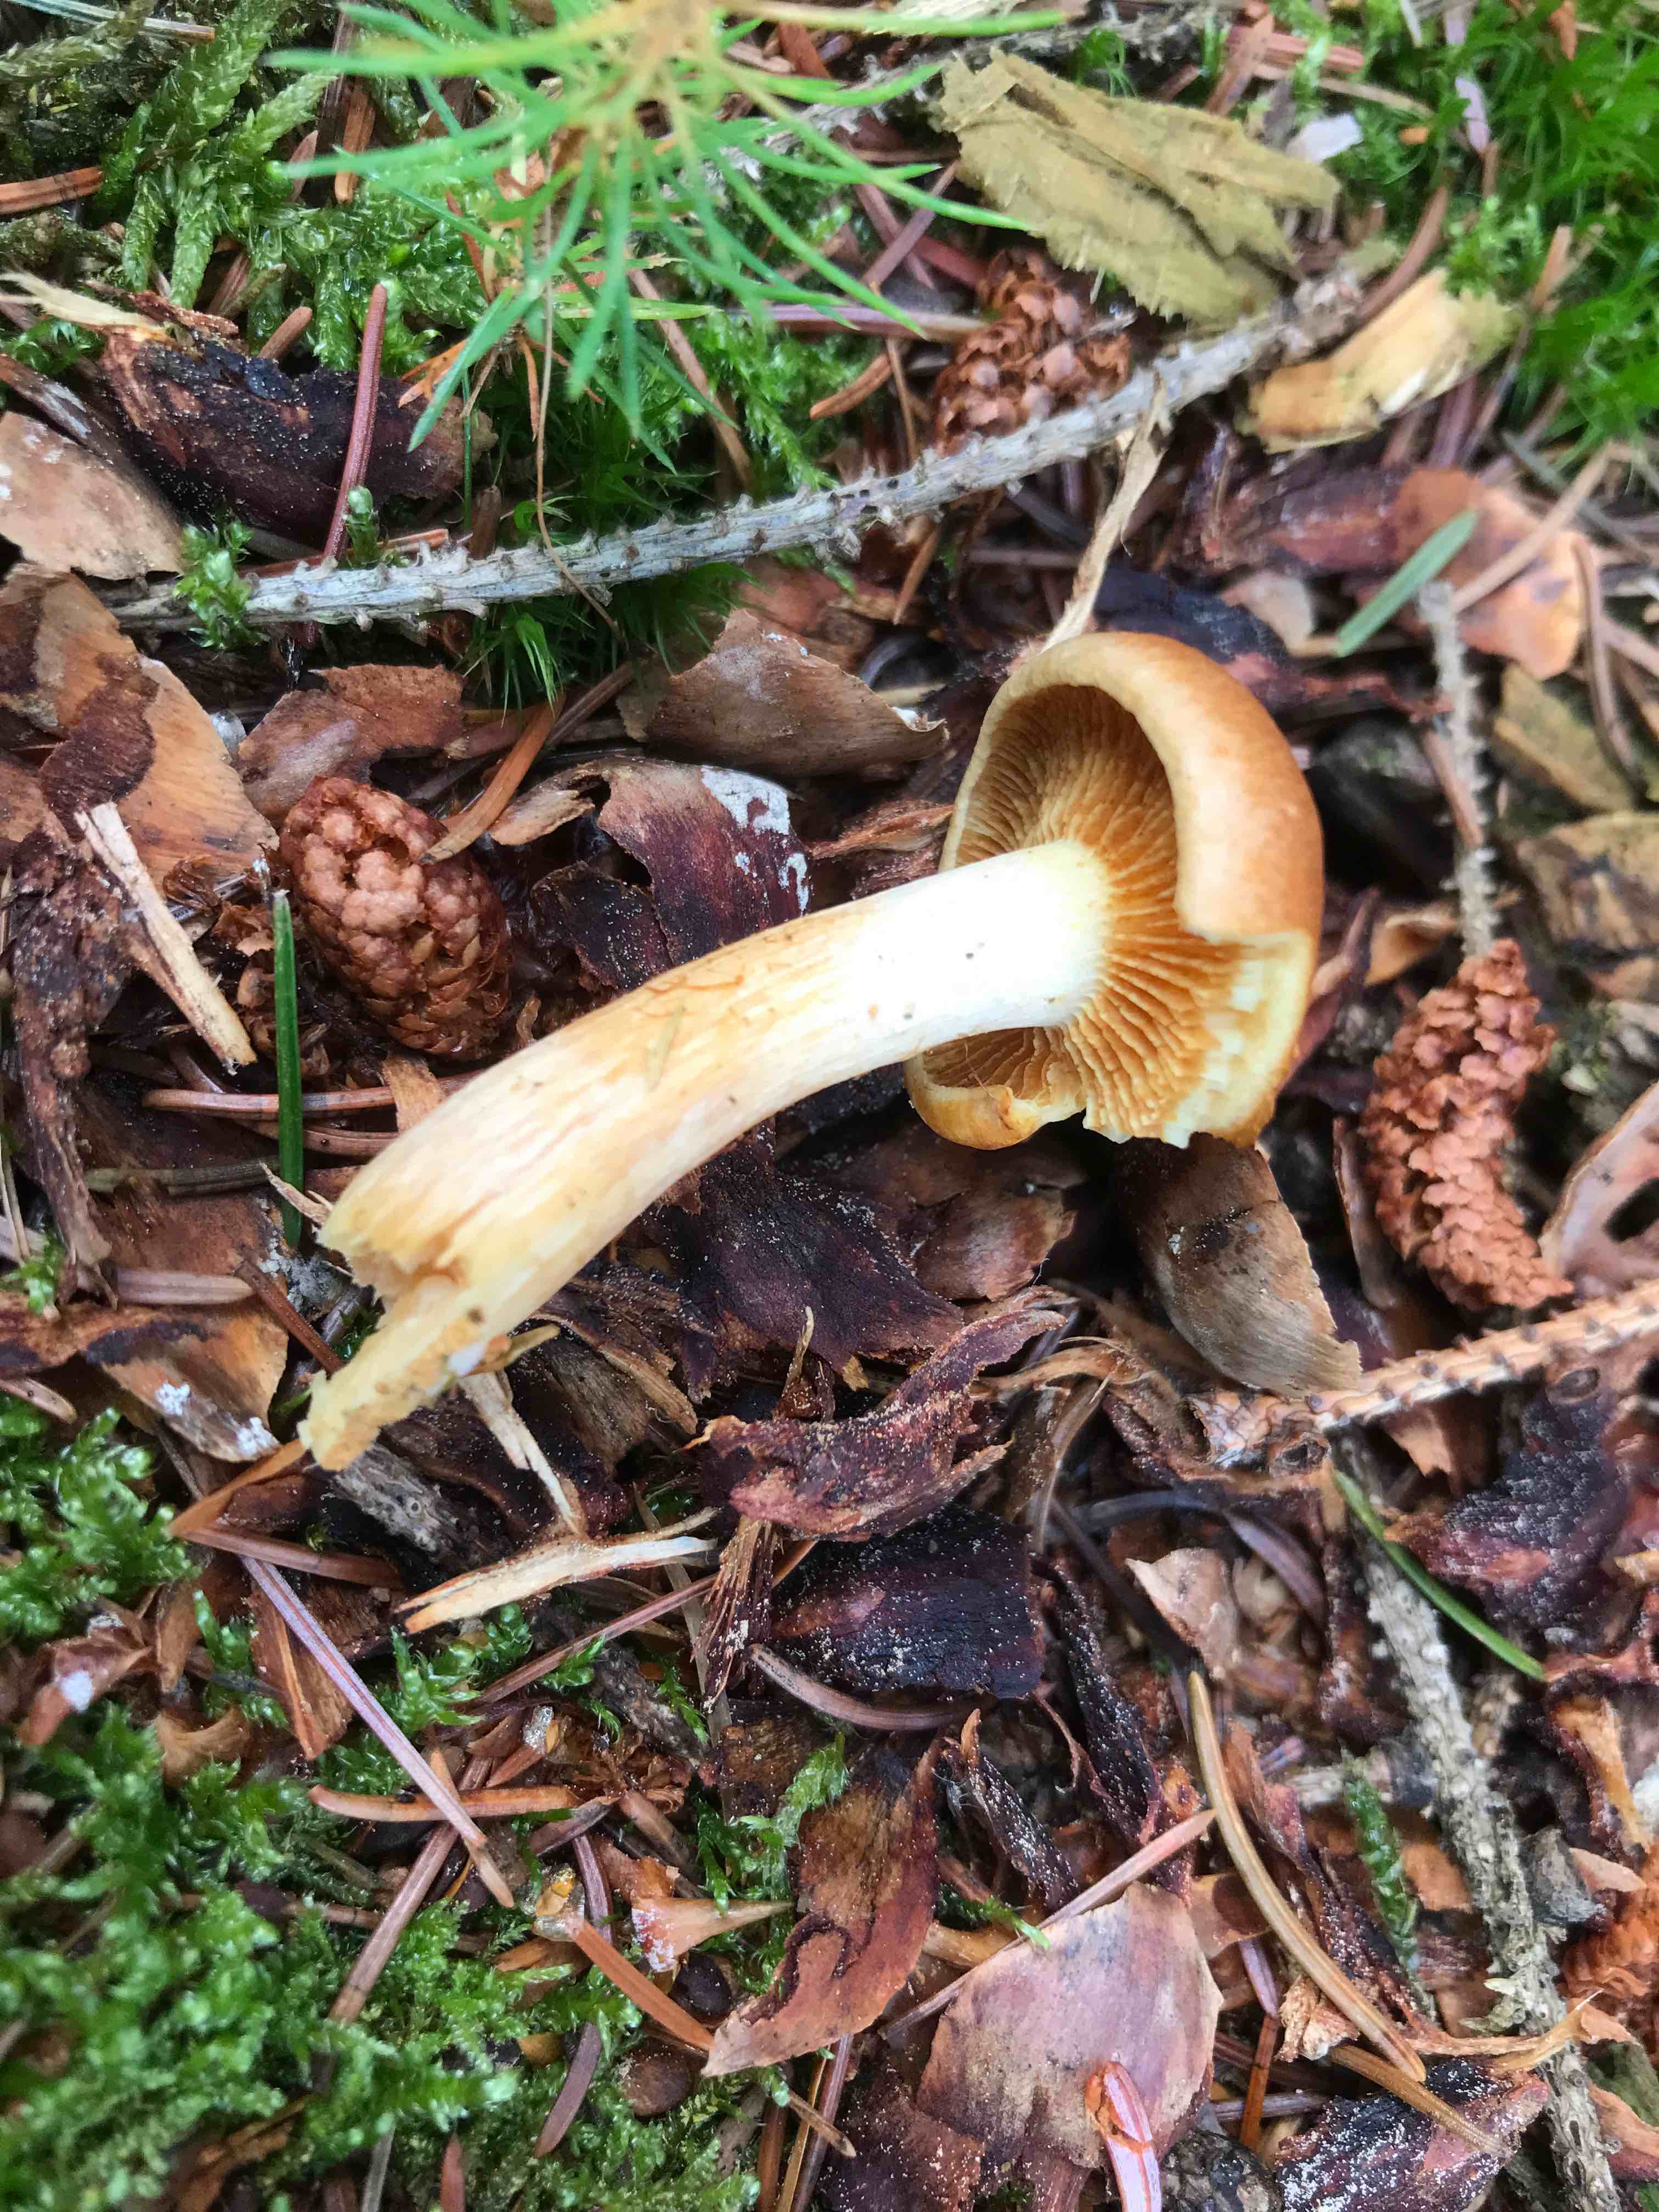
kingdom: Fungi
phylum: Basidiomycota
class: Agaricomycetes
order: Agaricales
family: Hymenogastraceae
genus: Gymnopilus
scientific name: Gymnopilus penetrans
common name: plettet flammehat
